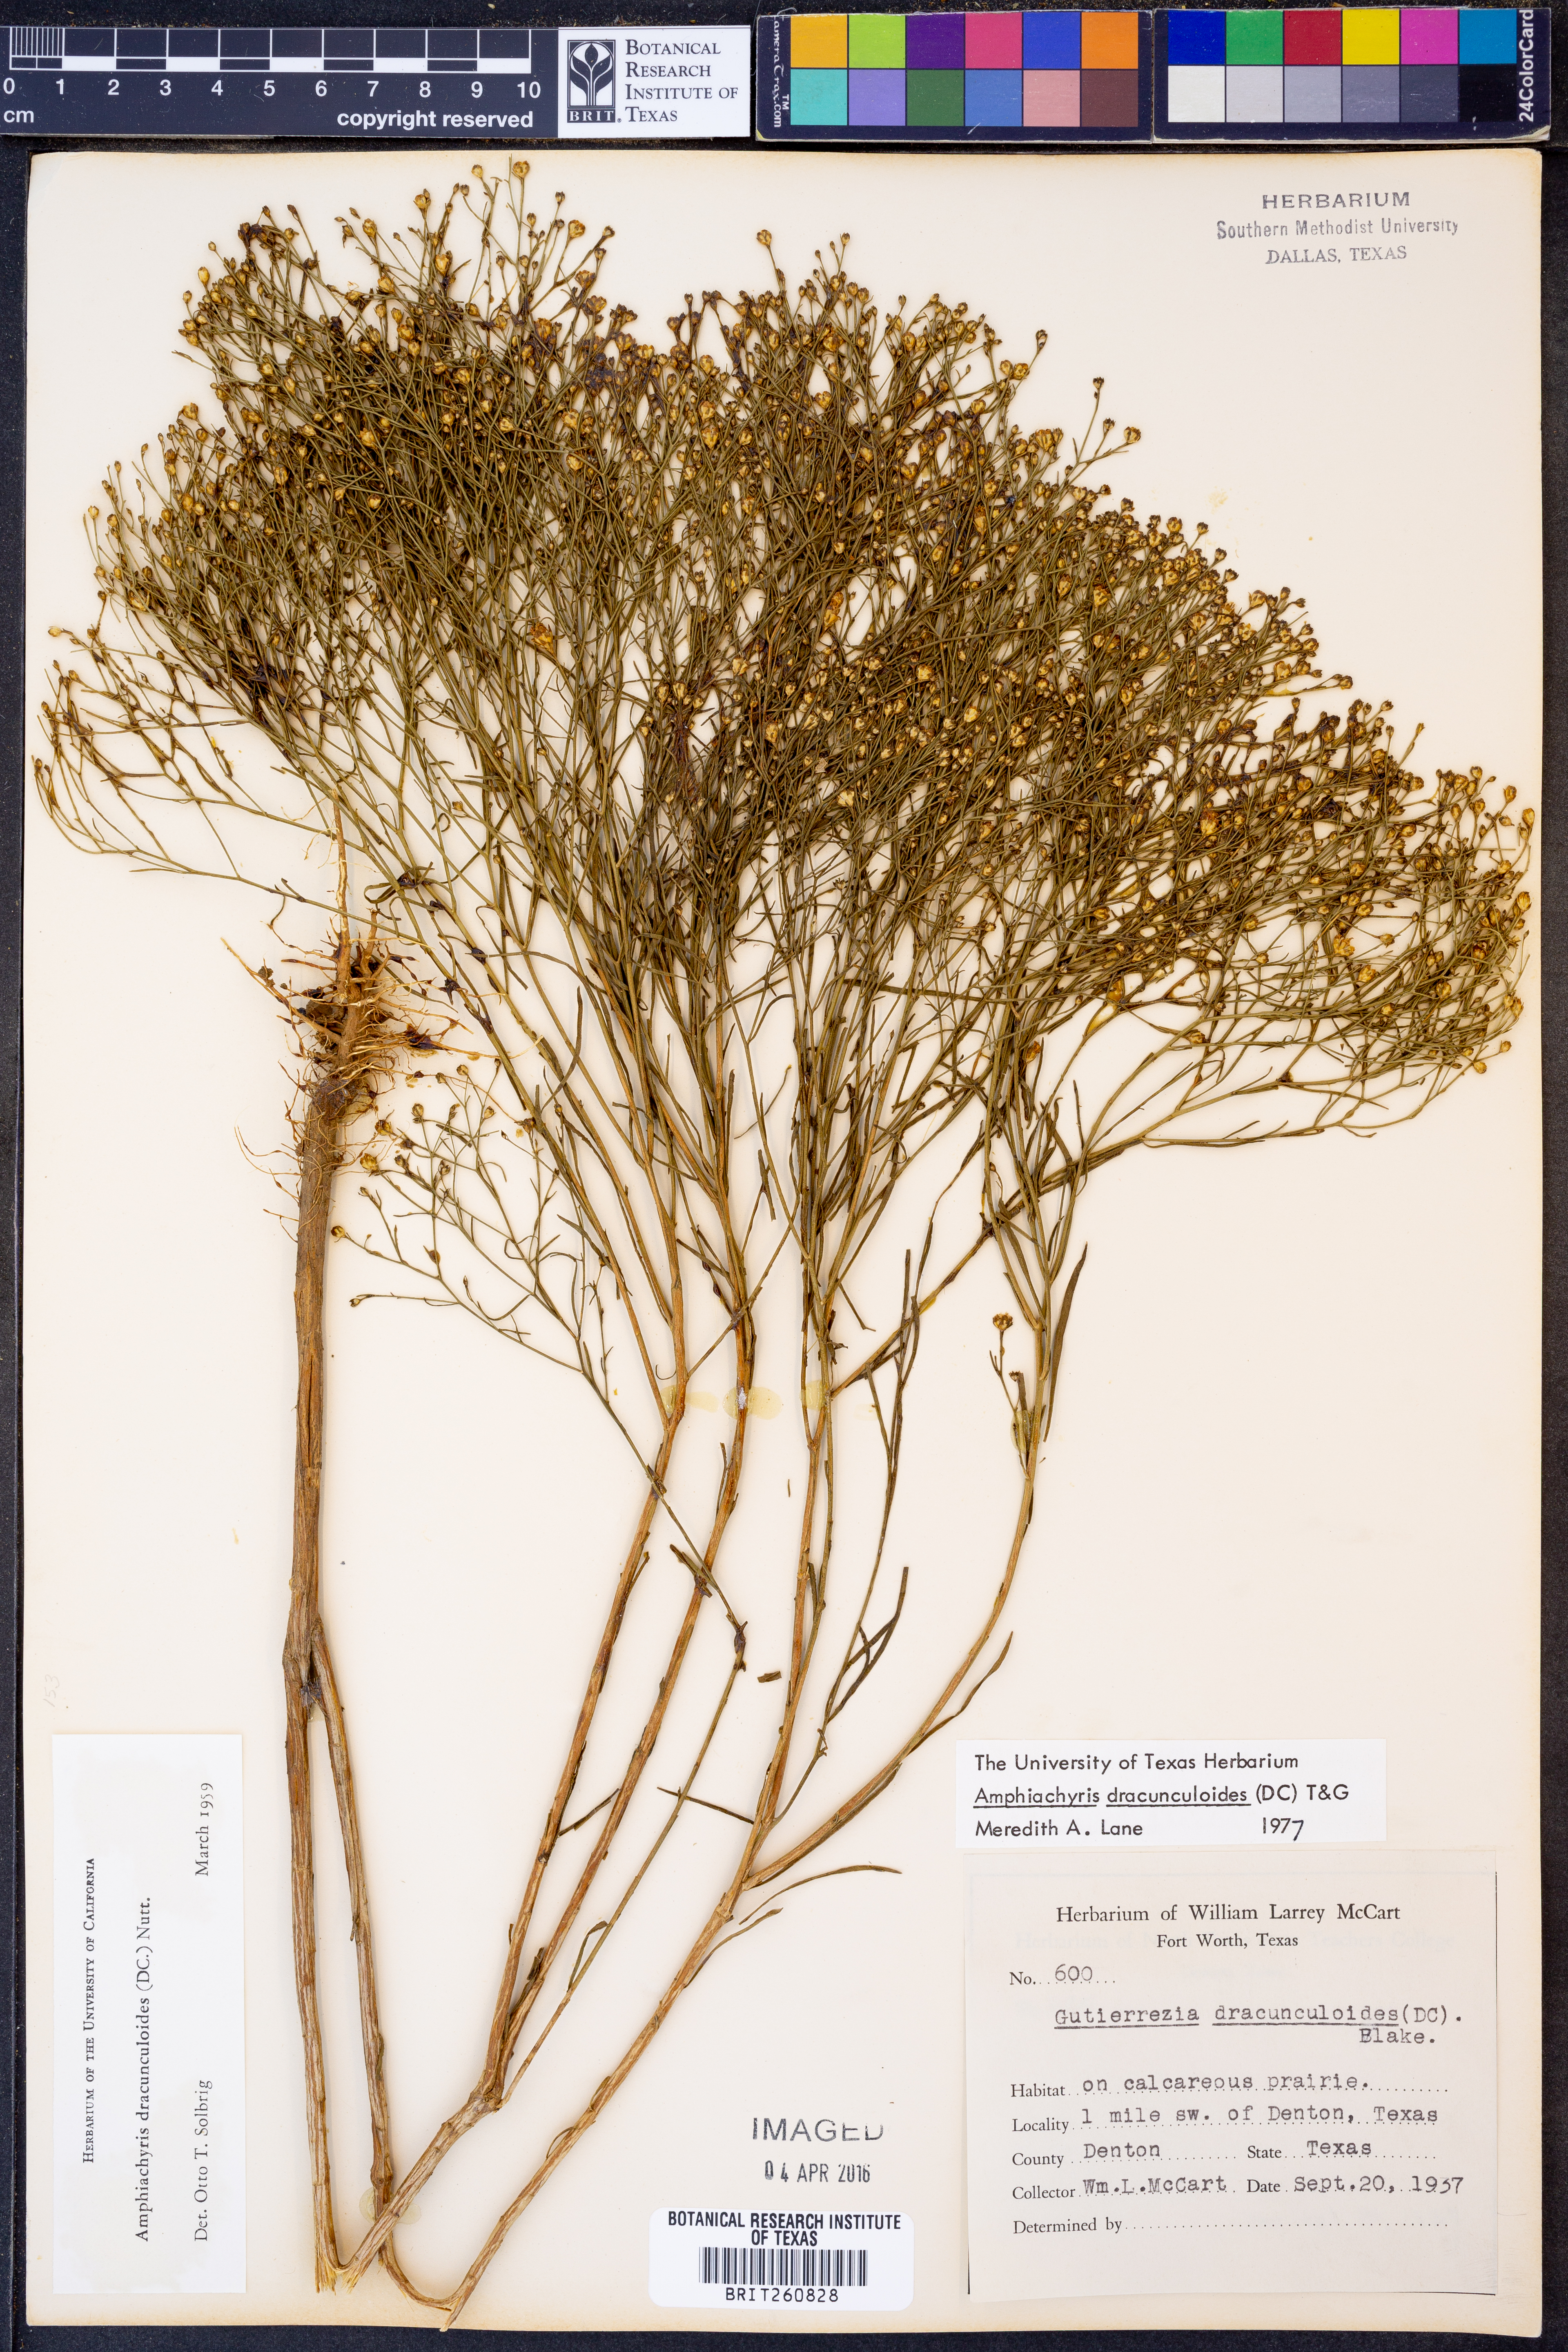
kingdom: Plantae
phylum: Tracheophyta
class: Magnoliopsida
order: Asterales
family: Asteraceae
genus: Amphiachyris
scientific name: Amphiachyris dracunculoides
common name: Broomweed
